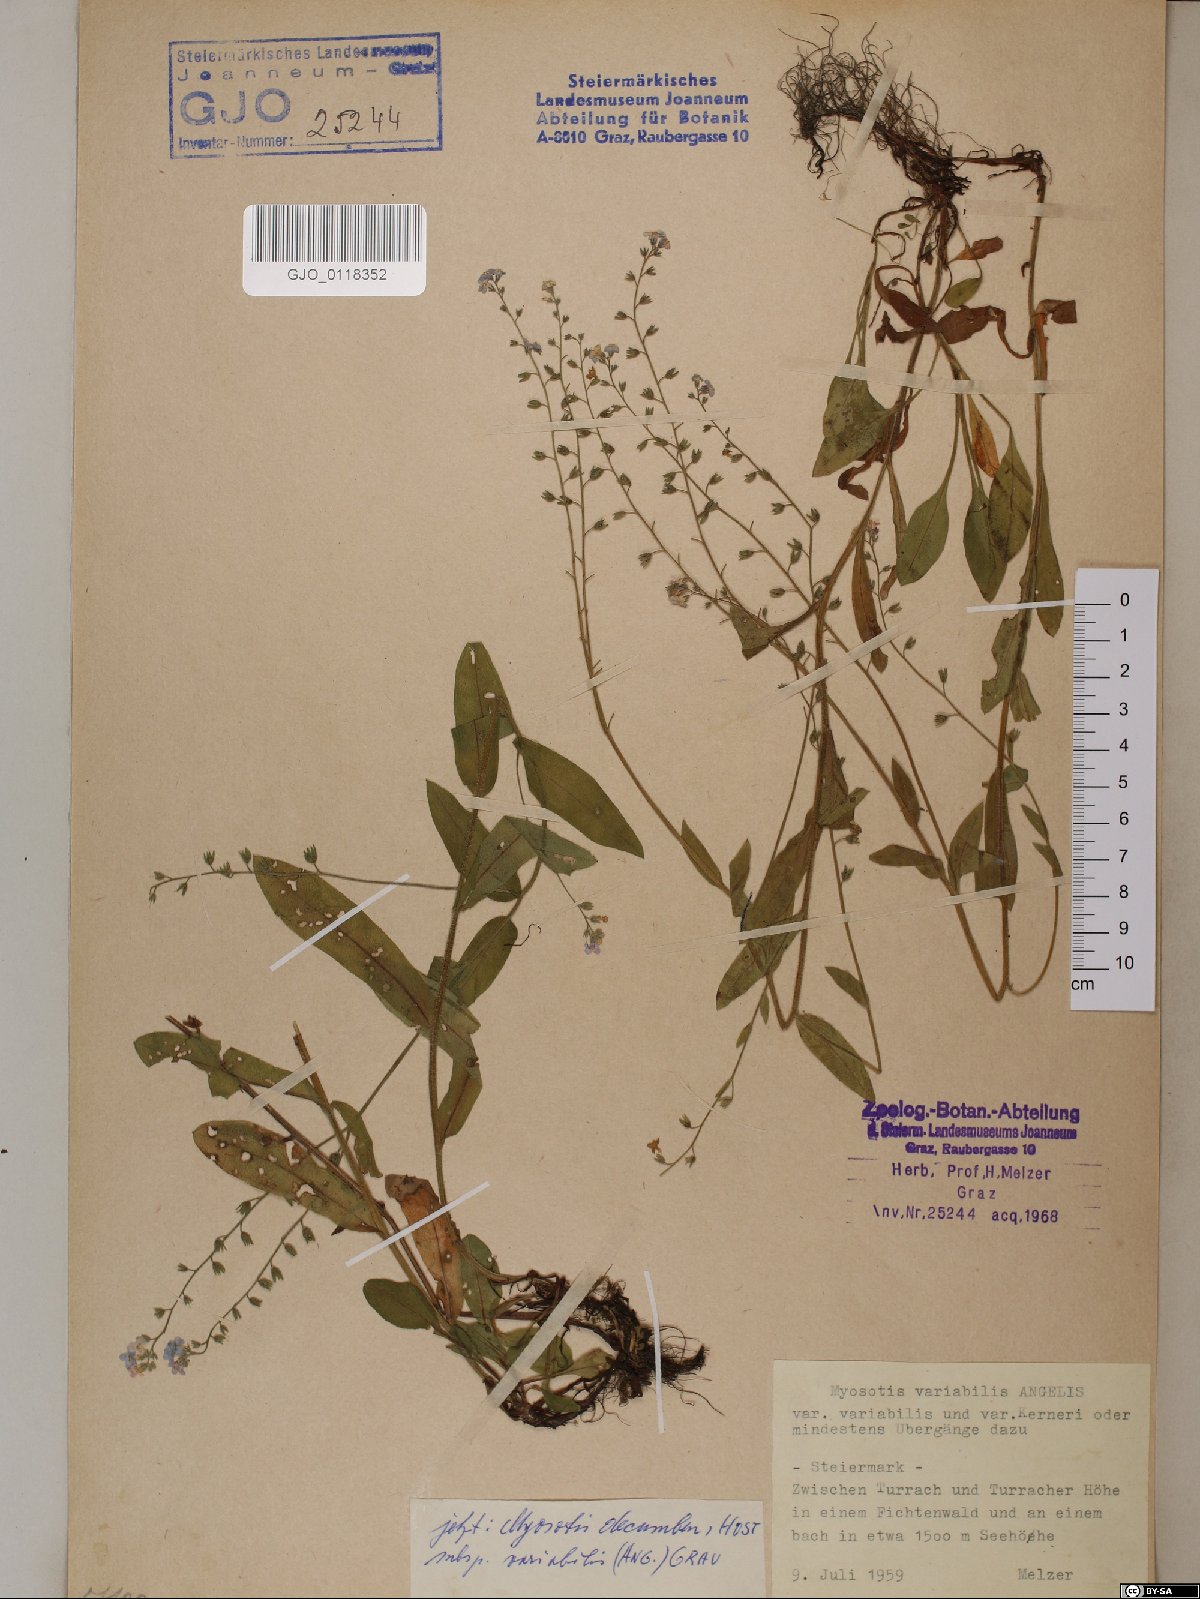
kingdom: Plantae
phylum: Tracheophyta
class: Magnoliopsida
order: Boraginales
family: Boraginaceae
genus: Myosotis
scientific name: Myosotis decumbens
